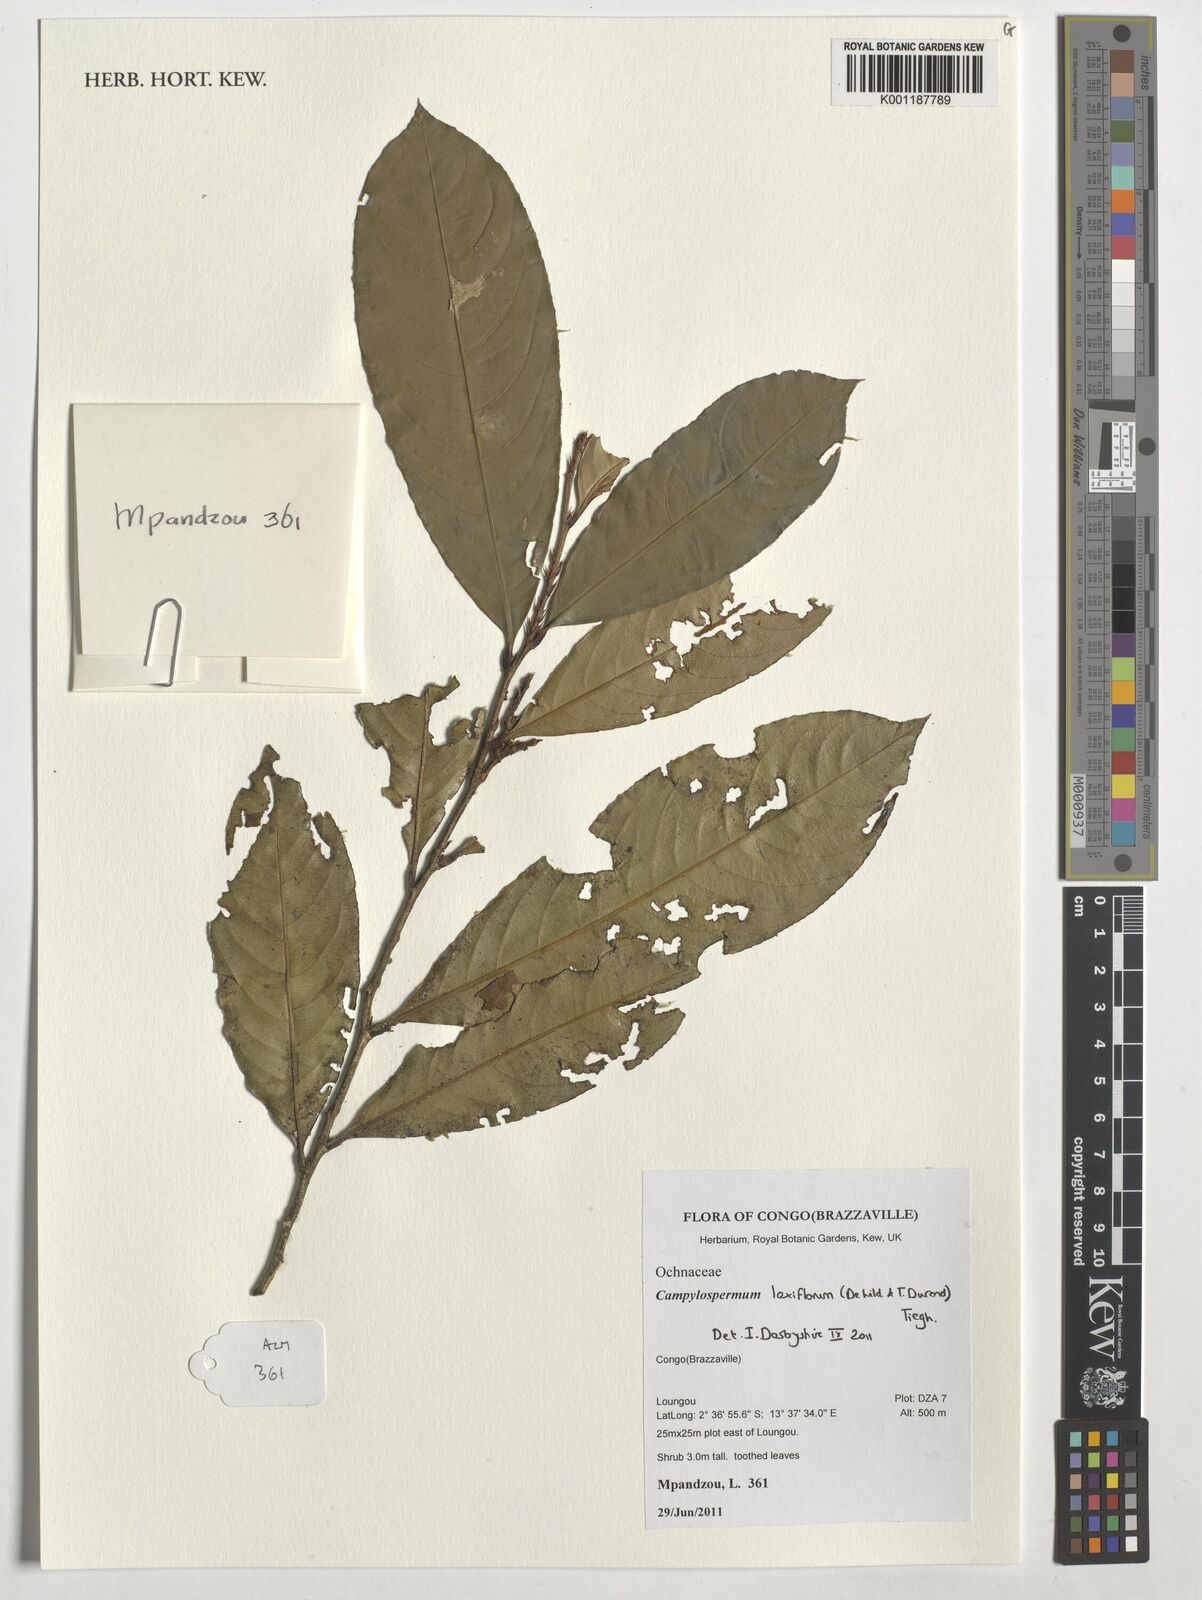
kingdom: Plantae
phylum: Tracheophyta
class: Magnoliopsida
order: Malpighiales
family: Ochnaceae
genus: Campylospermum
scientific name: Campylospermum laxiflorum
